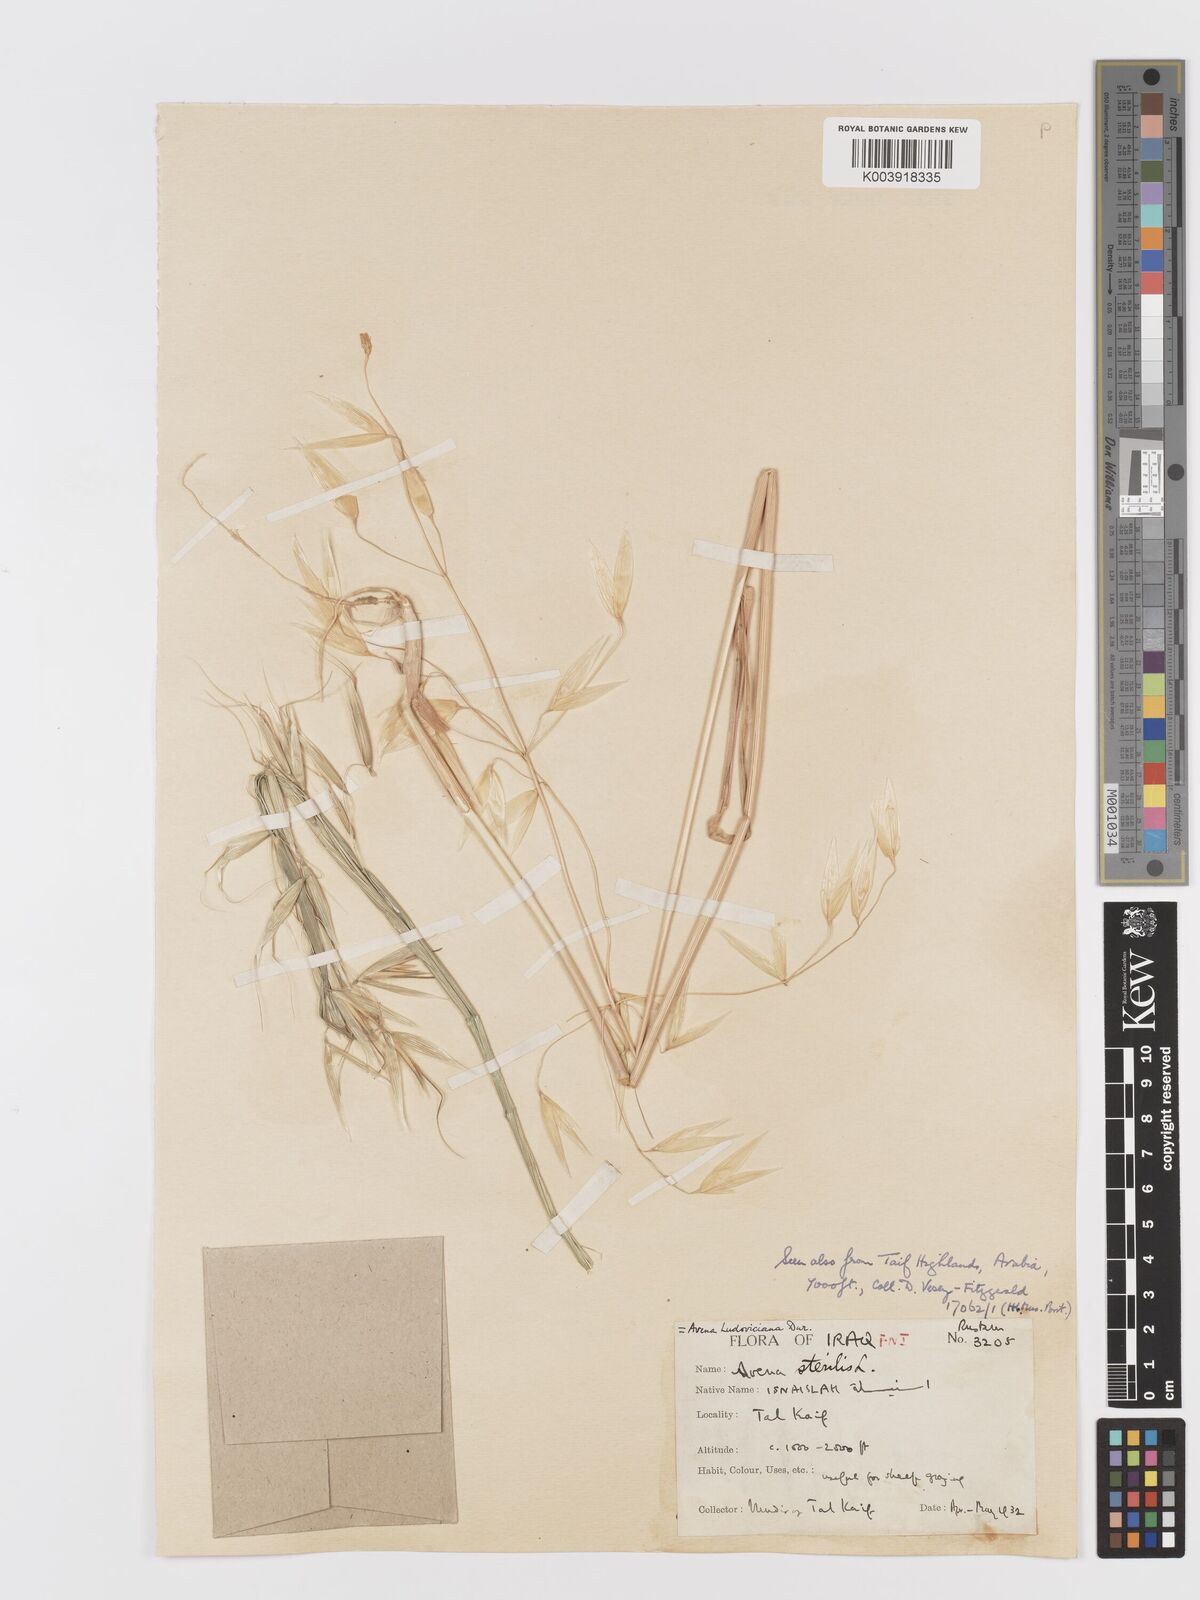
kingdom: Plantae
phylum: Tracheophyta
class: Liliopsida
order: Poales
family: Poaceae
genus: Avena
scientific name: Avena sterilis
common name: Animated oat
